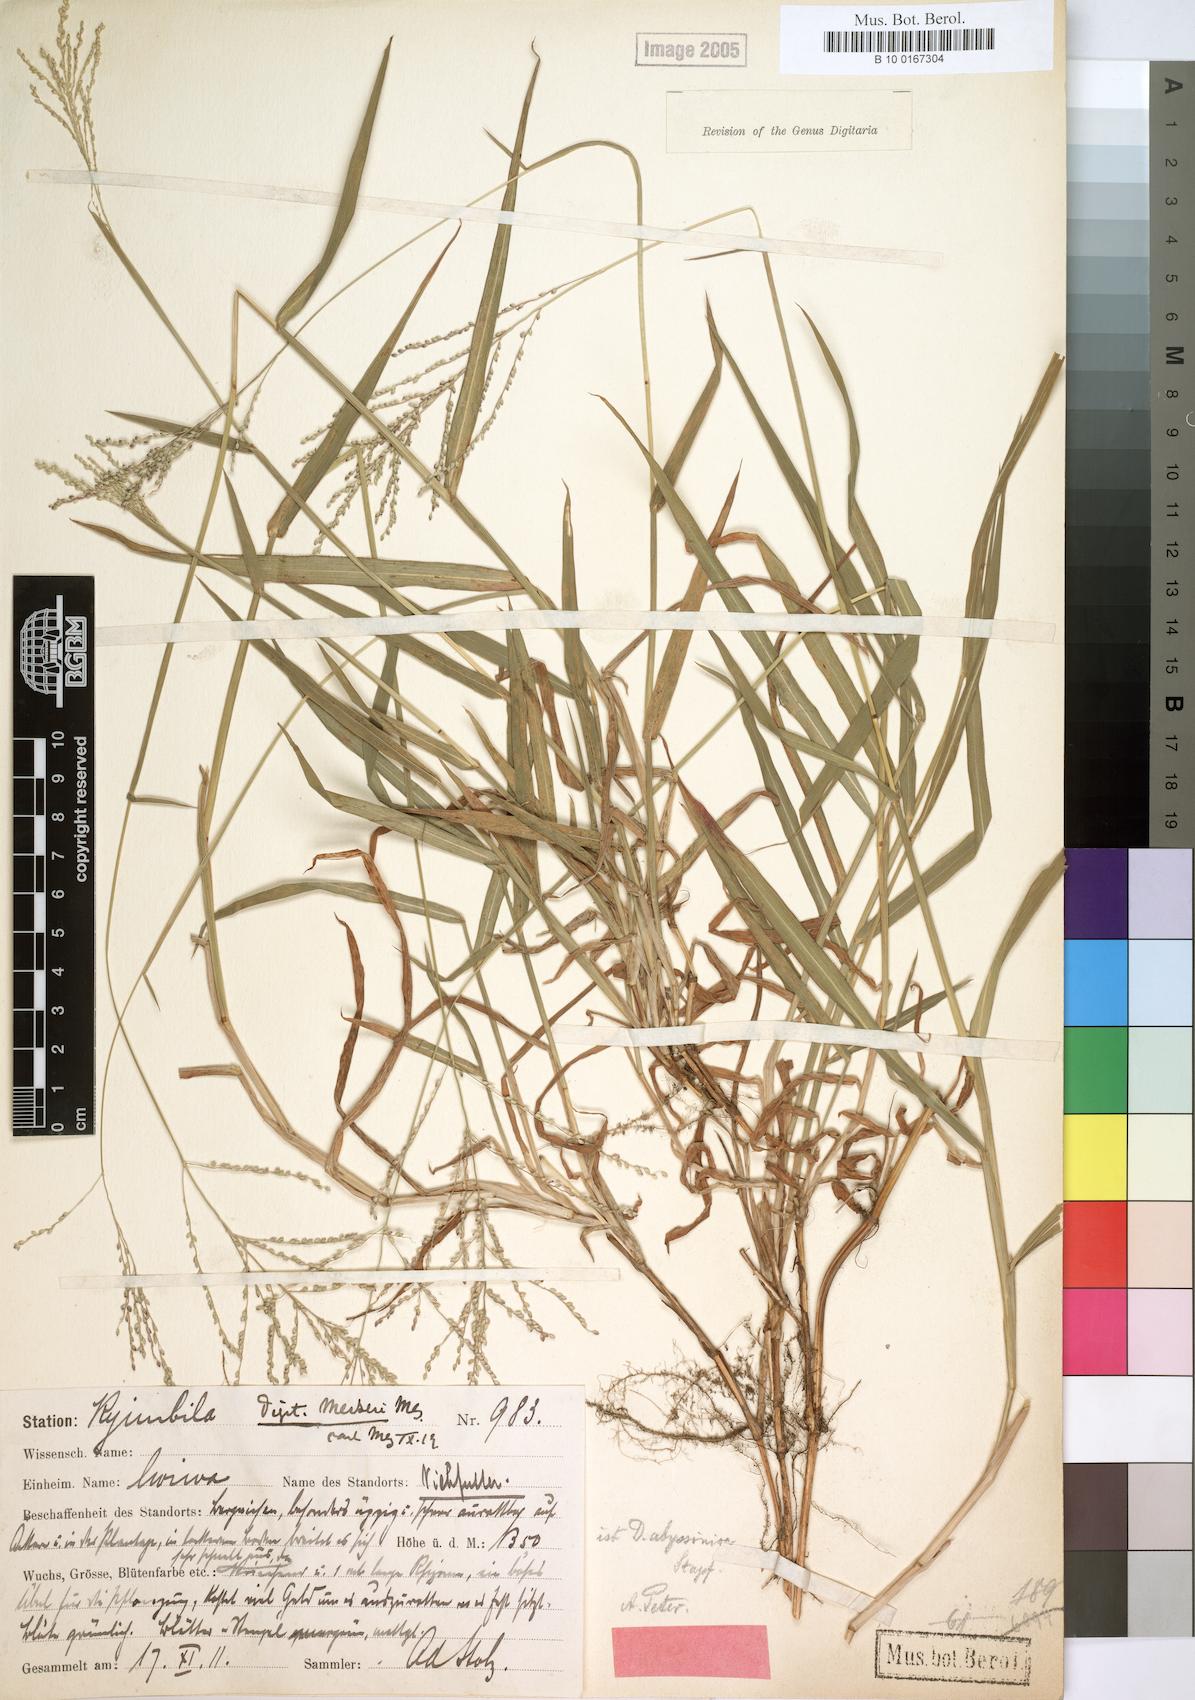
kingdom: Plantae
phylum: Tracheophyta
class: Liliopsida
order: Poales
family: Poaceae
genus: Digitaria
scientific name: Digitaria abyssinica
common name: African couchgrass
